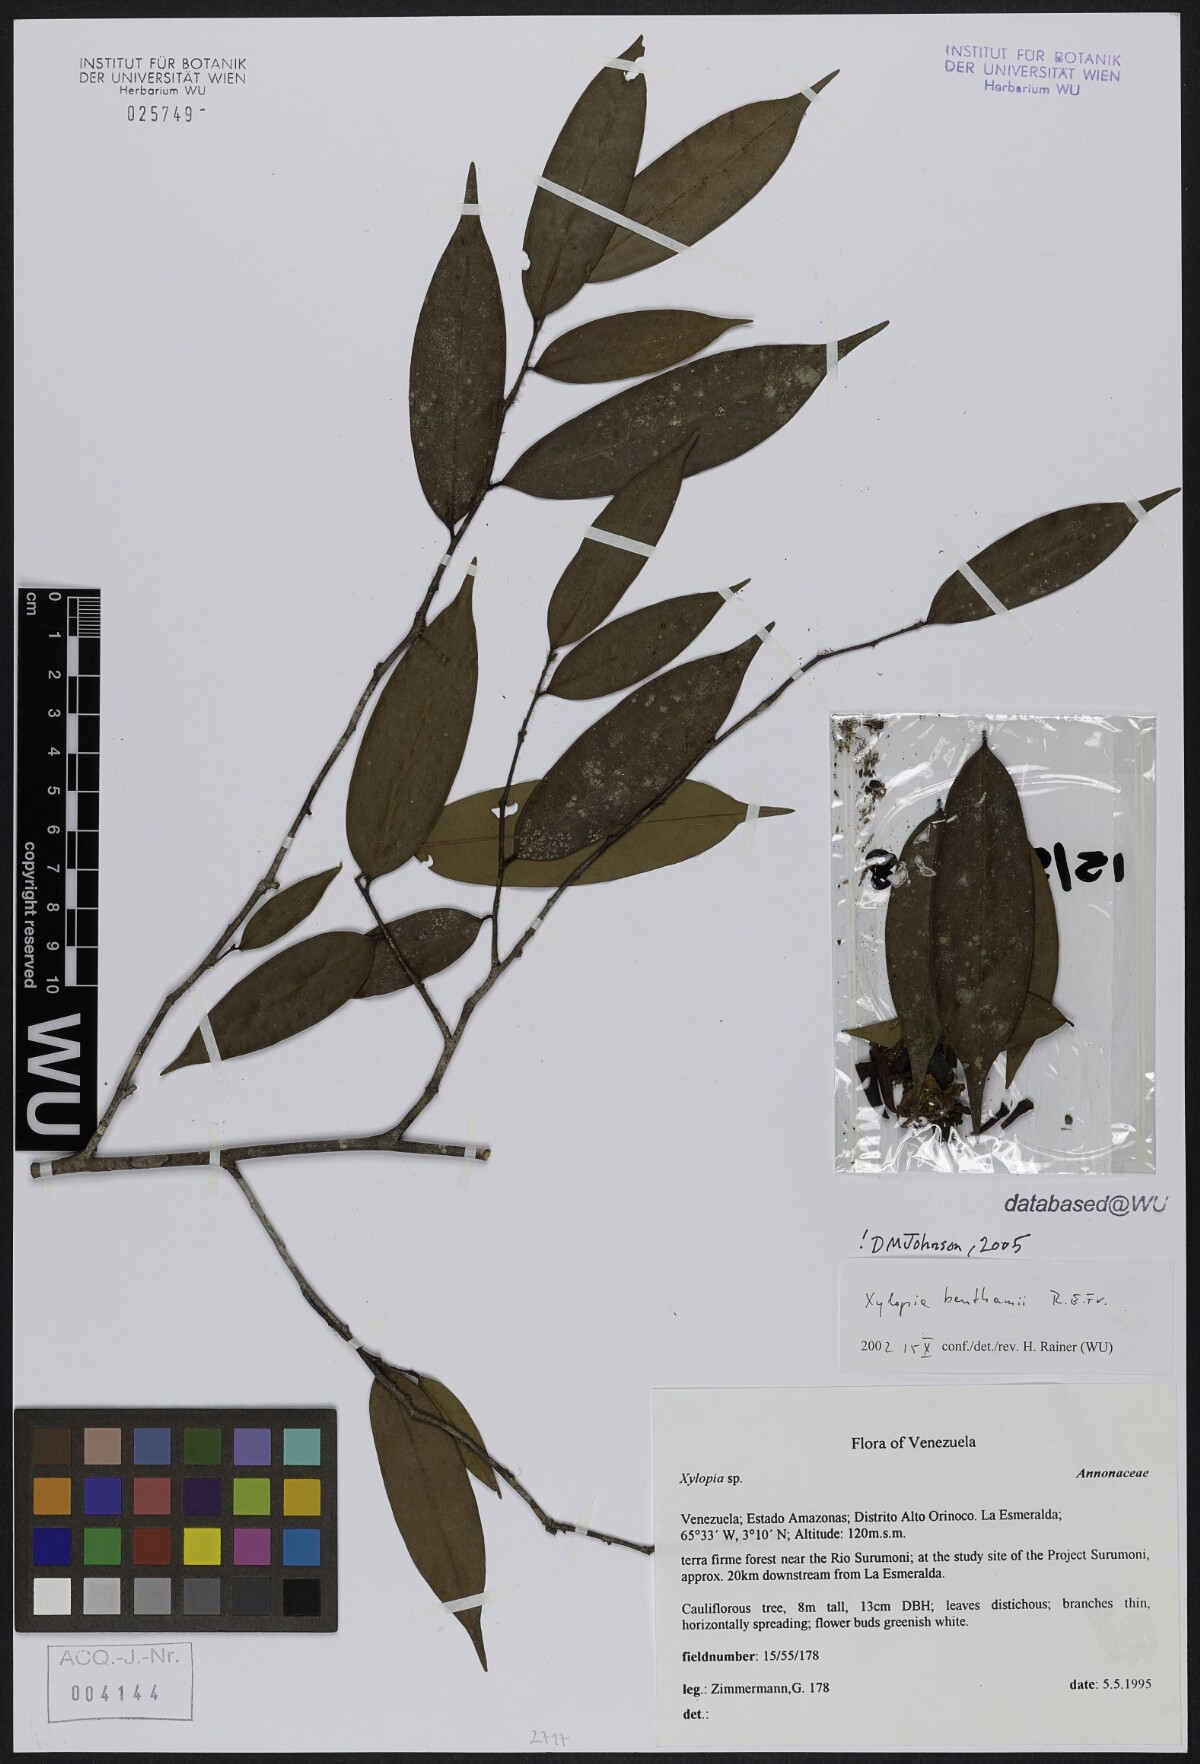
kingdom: Plantae
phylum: Tracheophyta
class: Magnoliopsida
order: Magnoliales
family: Annonaceae
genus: Xylopia
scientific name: Xylopia benthamii
